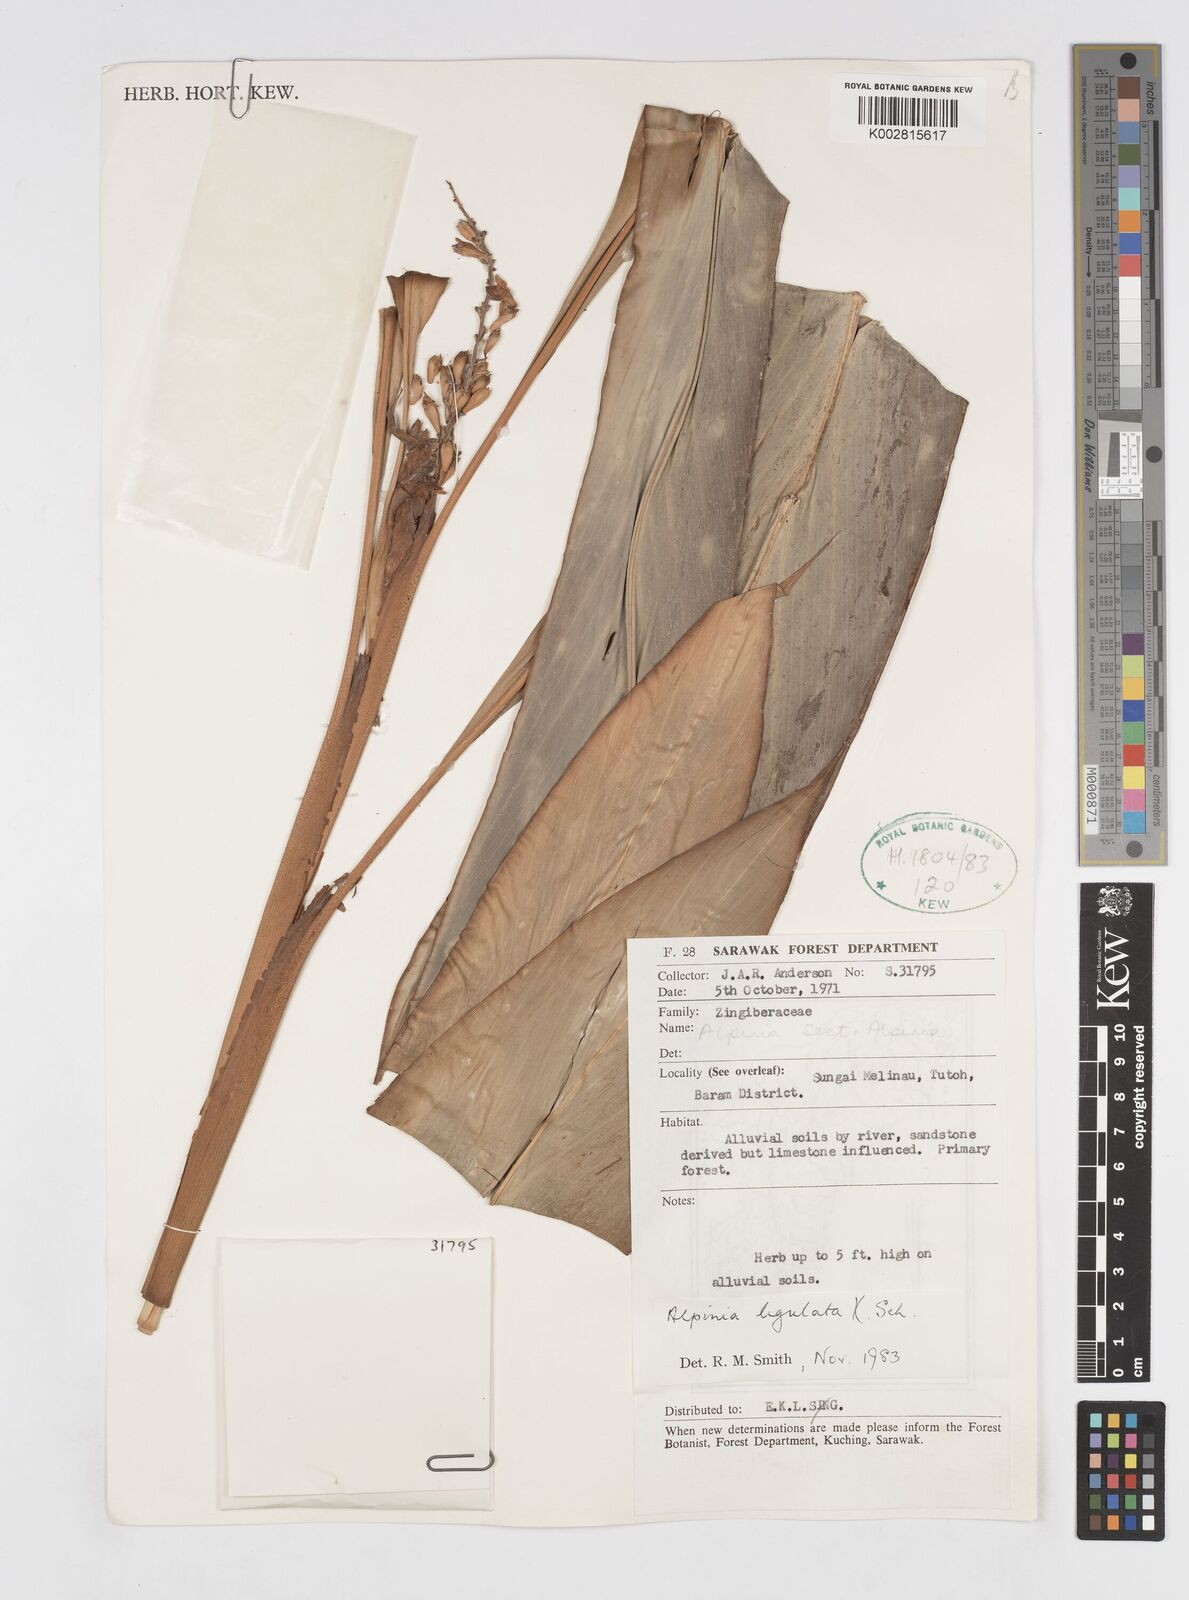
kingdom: Plantae
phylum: Tracheophyta
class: Liliopsida
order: Zingiberales
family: Zingiberaceae
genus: Alpinia
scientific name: Alpinia ligulata
